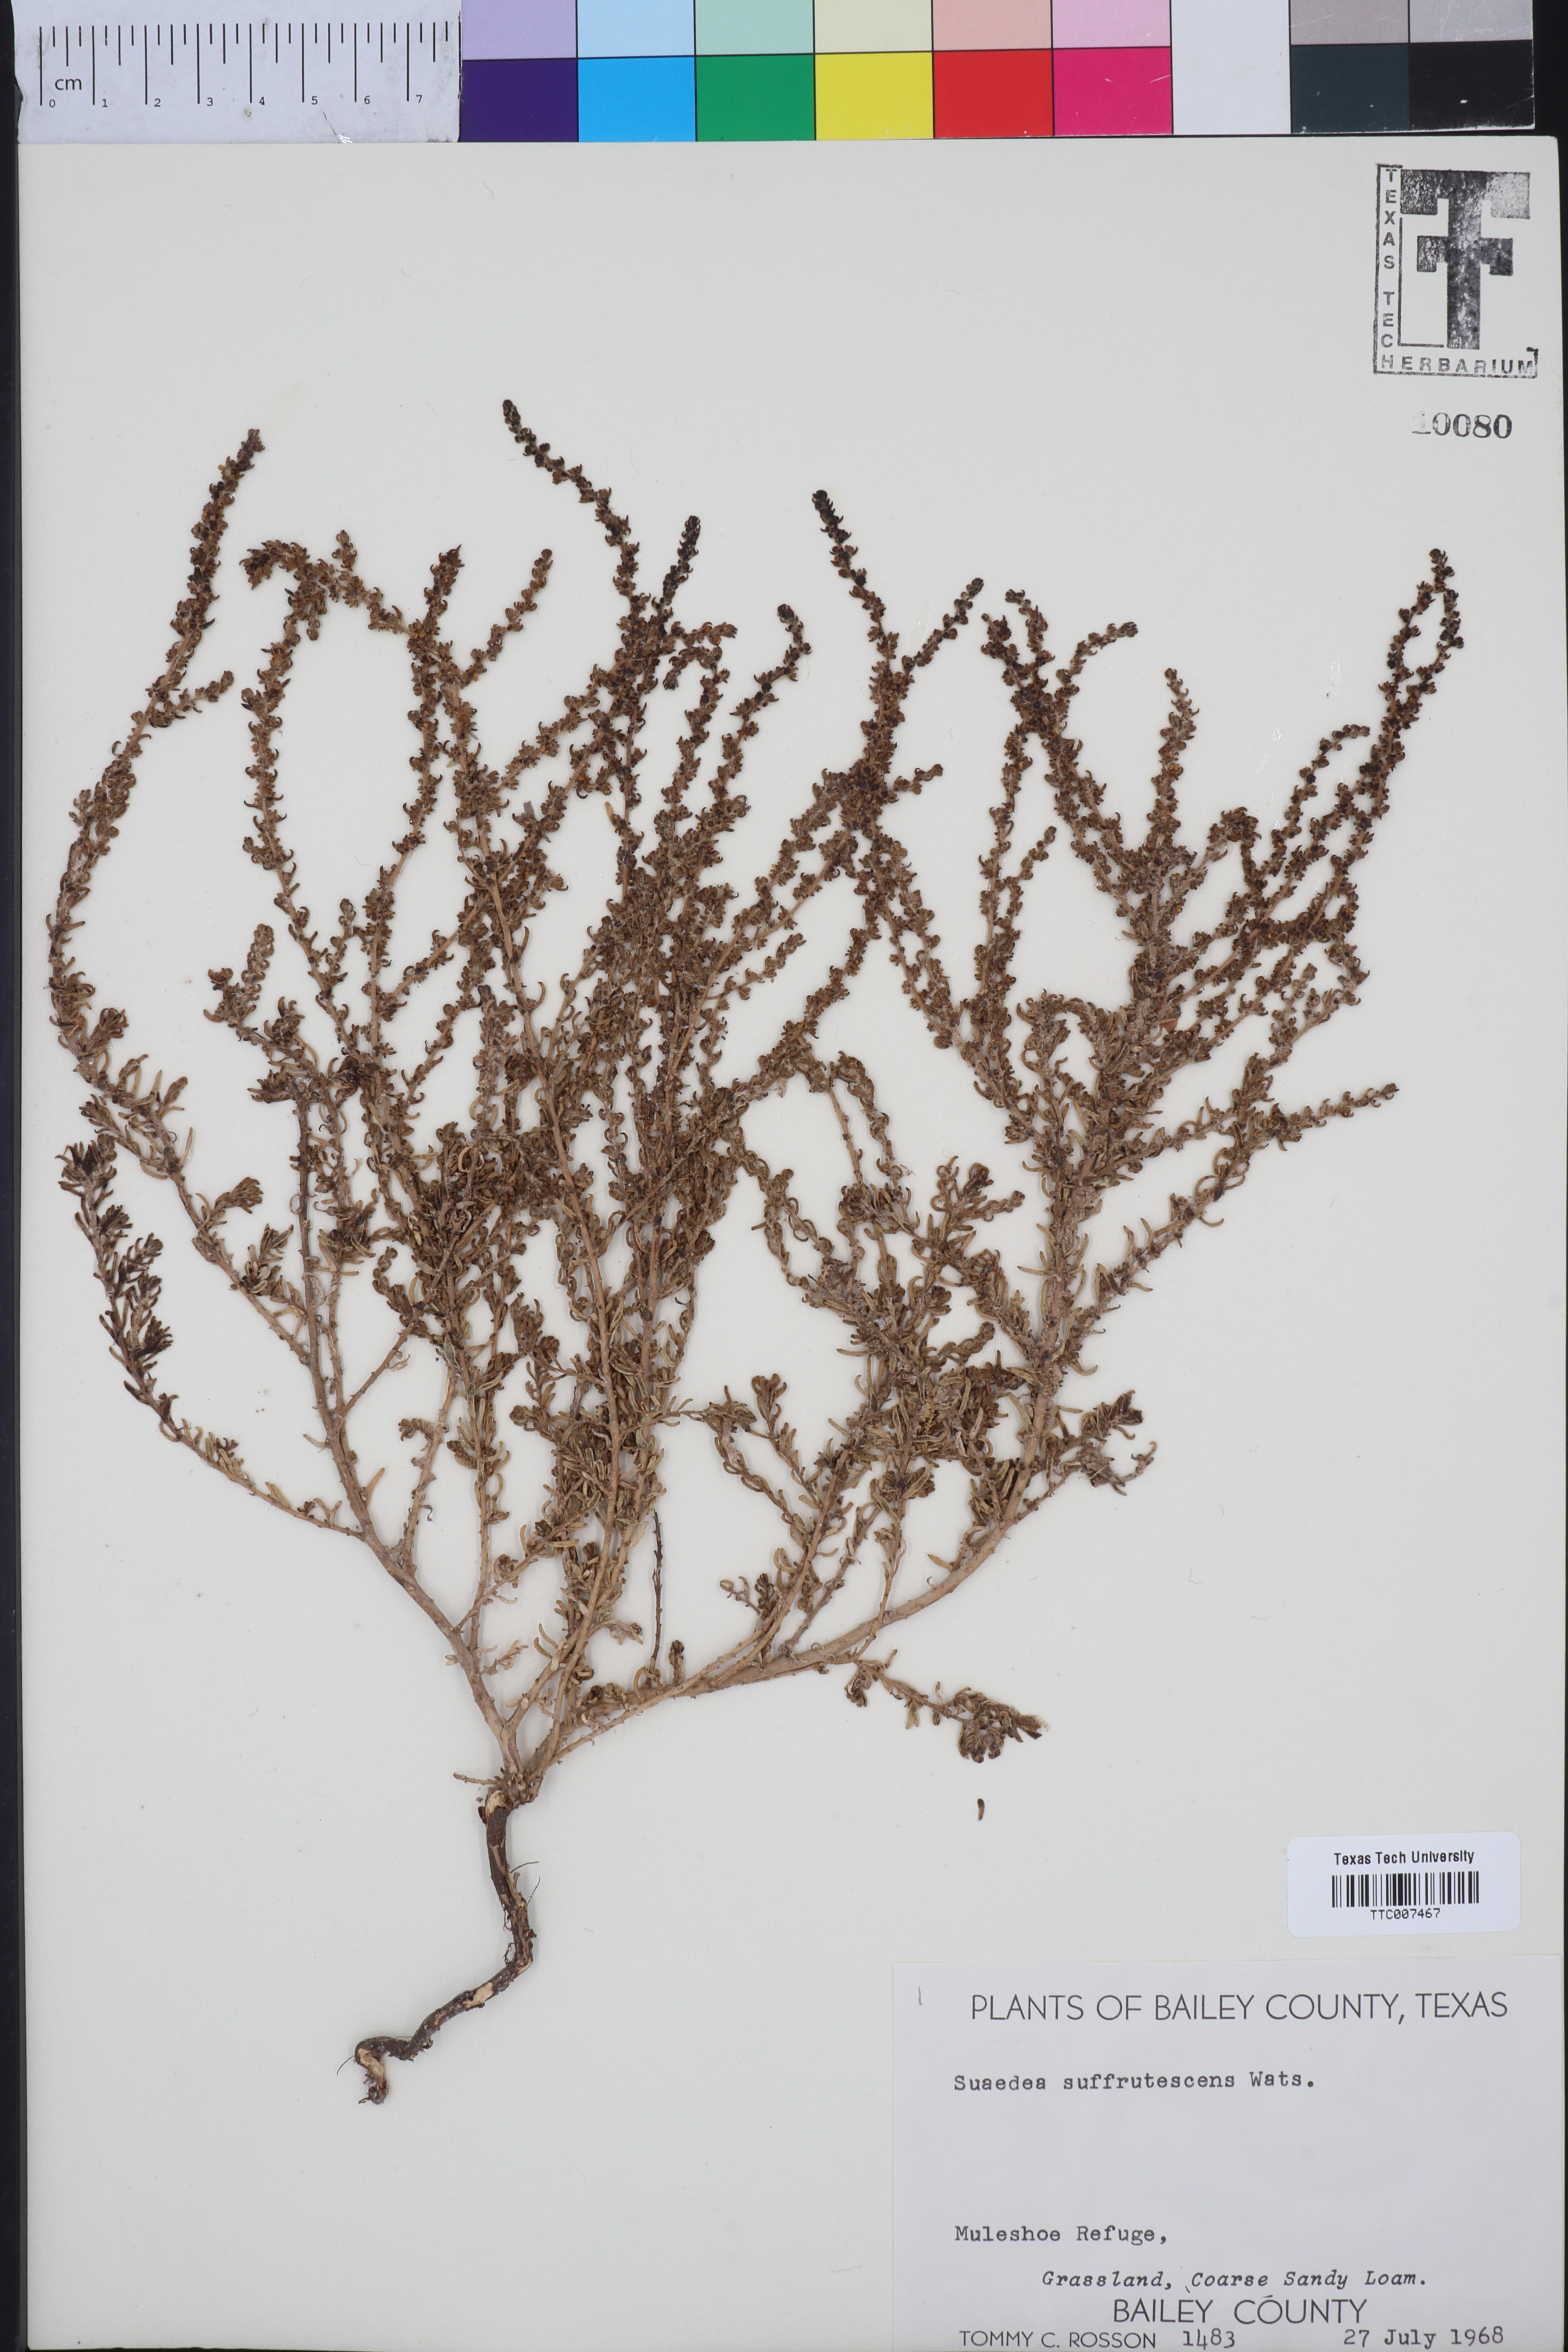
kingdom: Plantae
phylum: Tracheophyta
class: Magnoliopsida
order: Caryophyllales
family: Amaranthaceae
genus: Suaeda
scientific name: Suaeda suffrutescens
